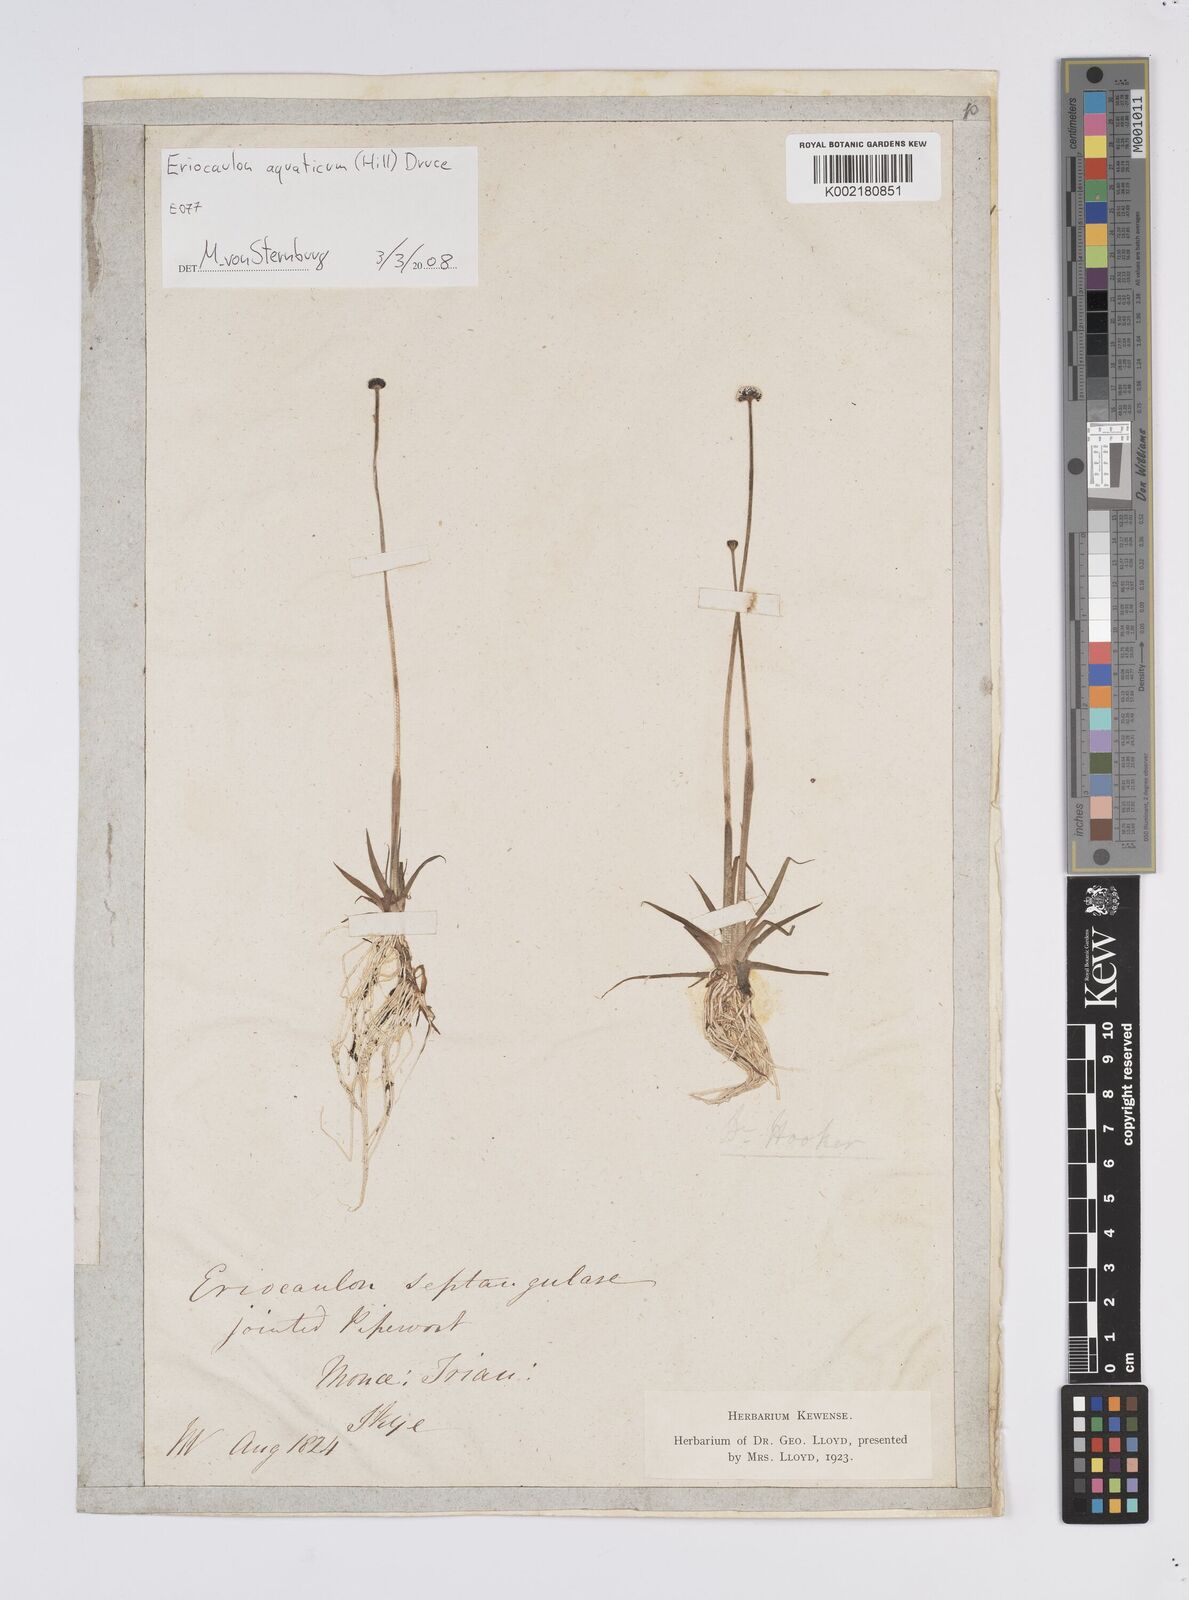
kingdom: Plantae
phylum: Tracheophyta
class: Liliopsida
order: Poales
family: Eriocaulaceae
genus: Eriocaulon
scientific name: Eriocaulon aquaticum
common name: Pipewort
